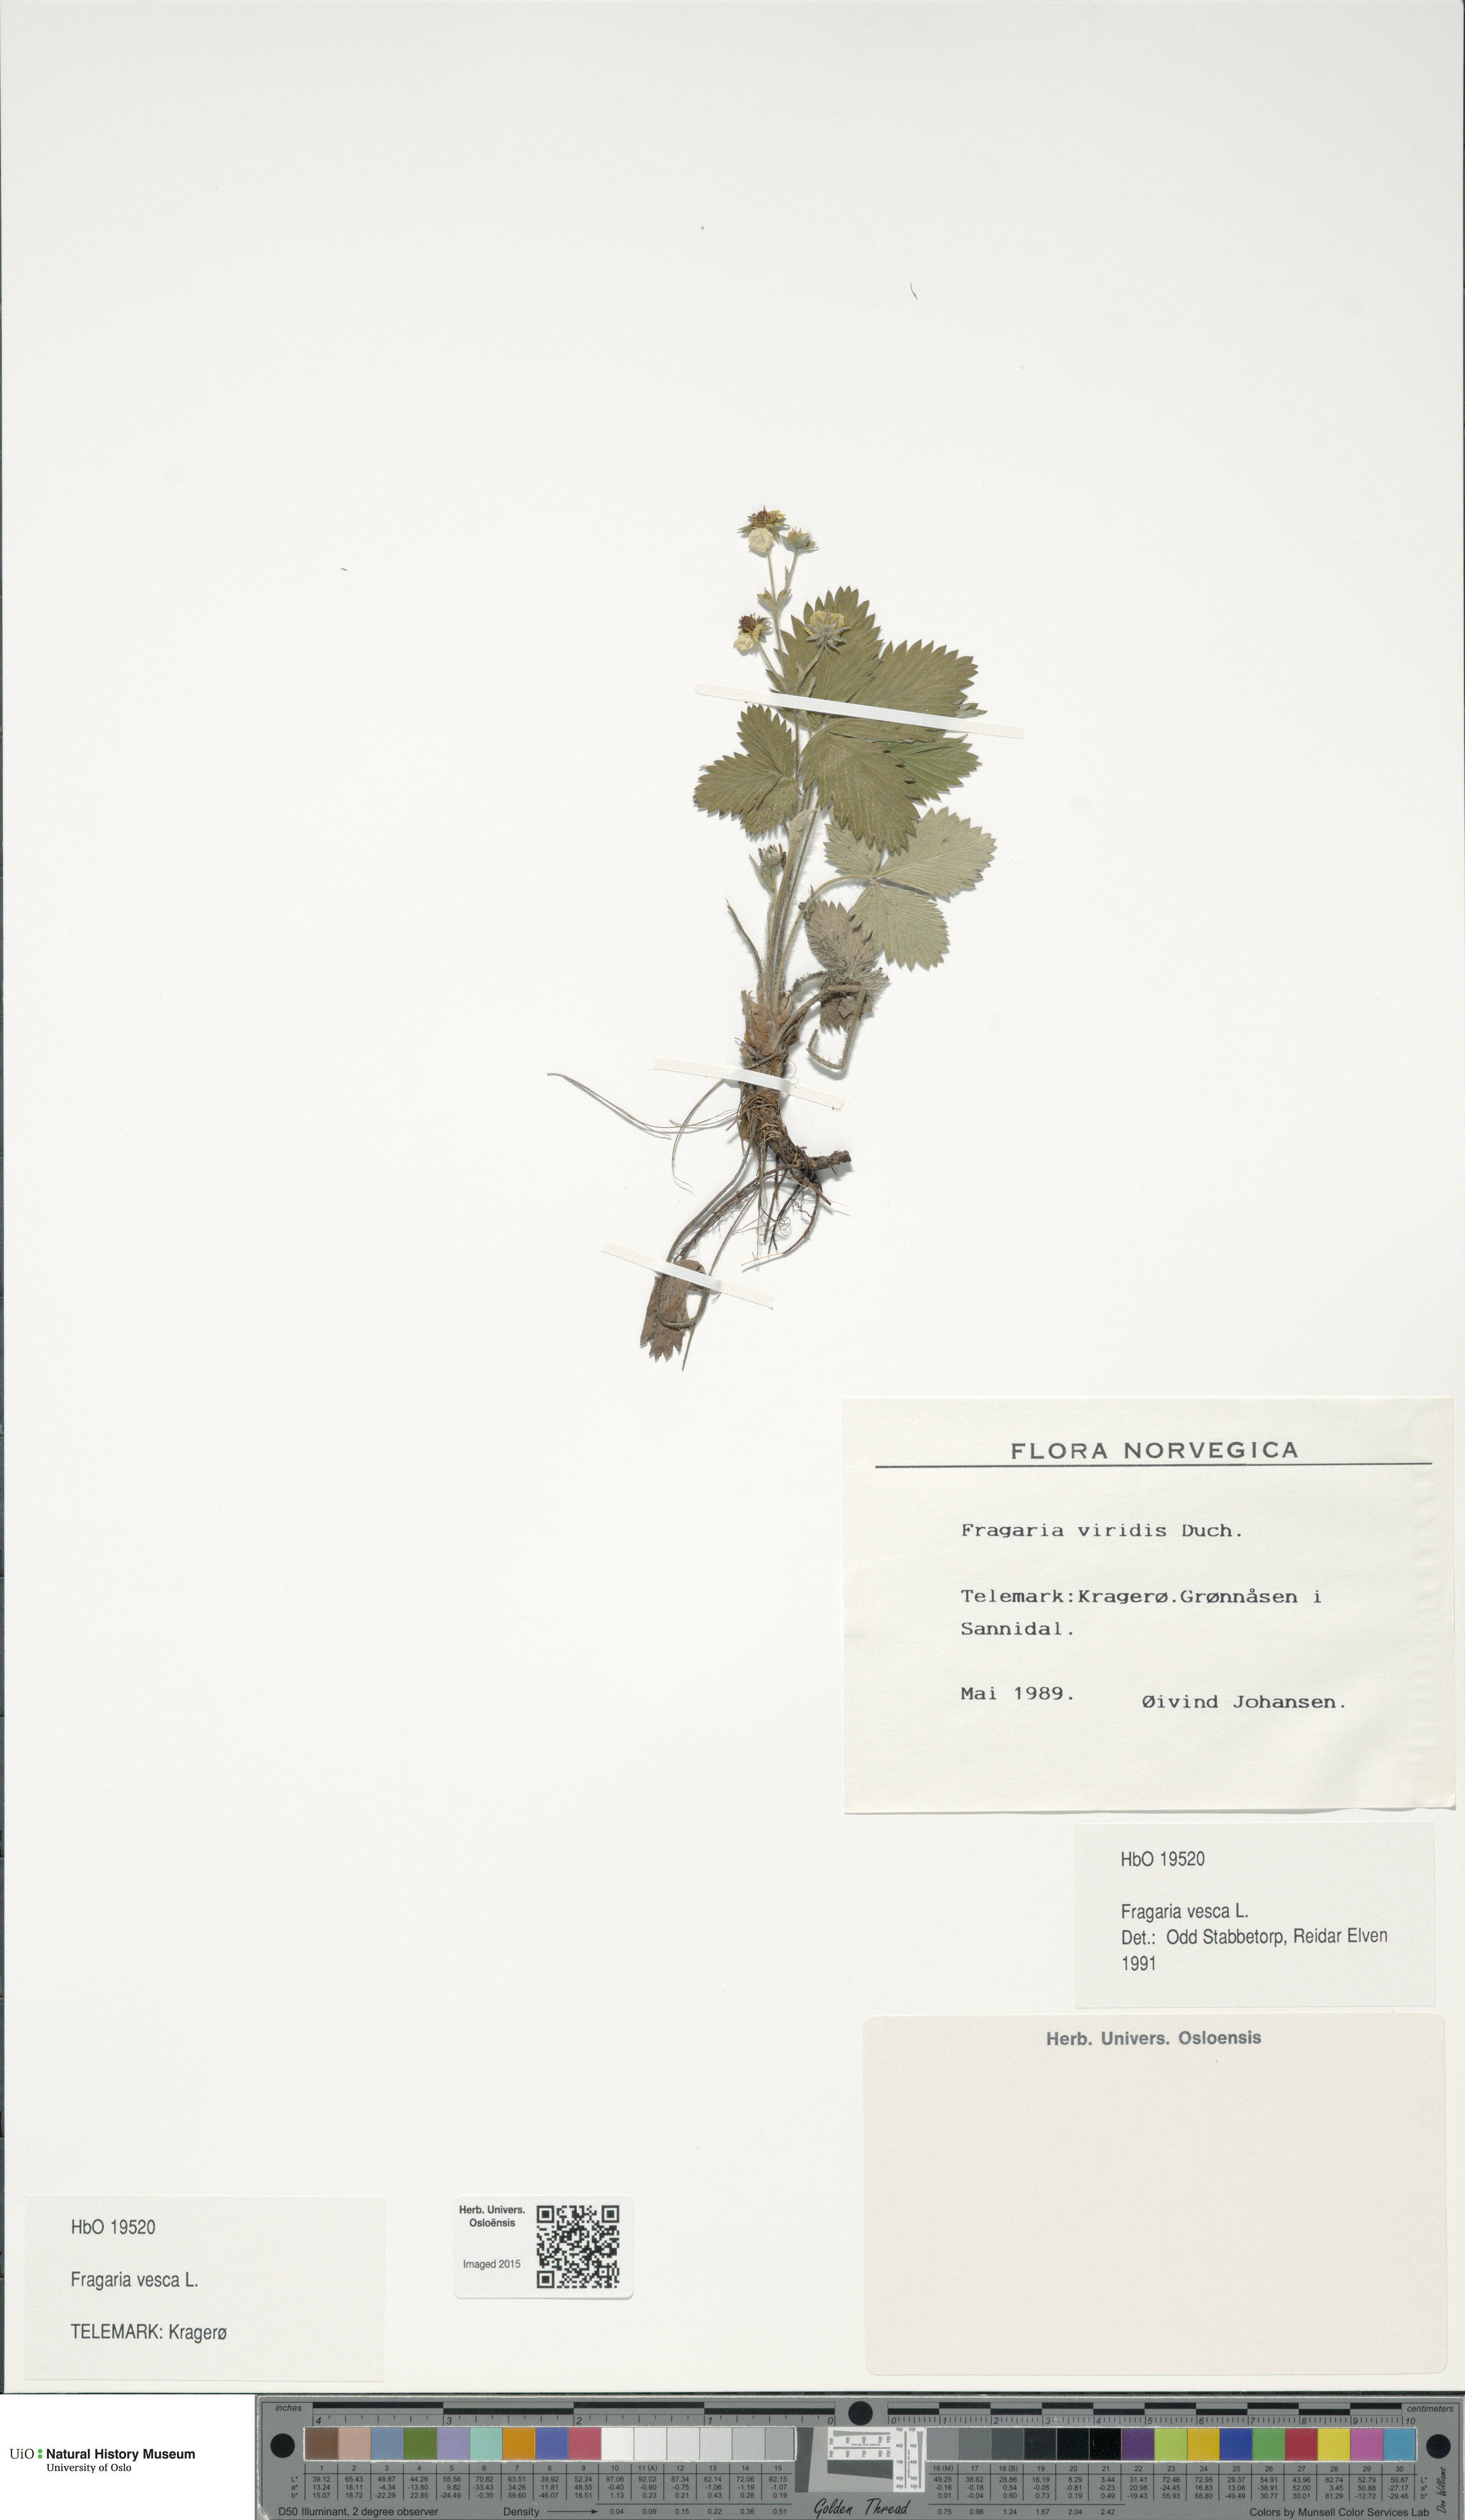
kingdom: Plantae
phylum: Tracheophyta
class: Magnoliopsida
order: Rosales
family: Rosaceae
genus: Fragaria
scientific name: Fragaria vesca
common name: Wild strawberry
